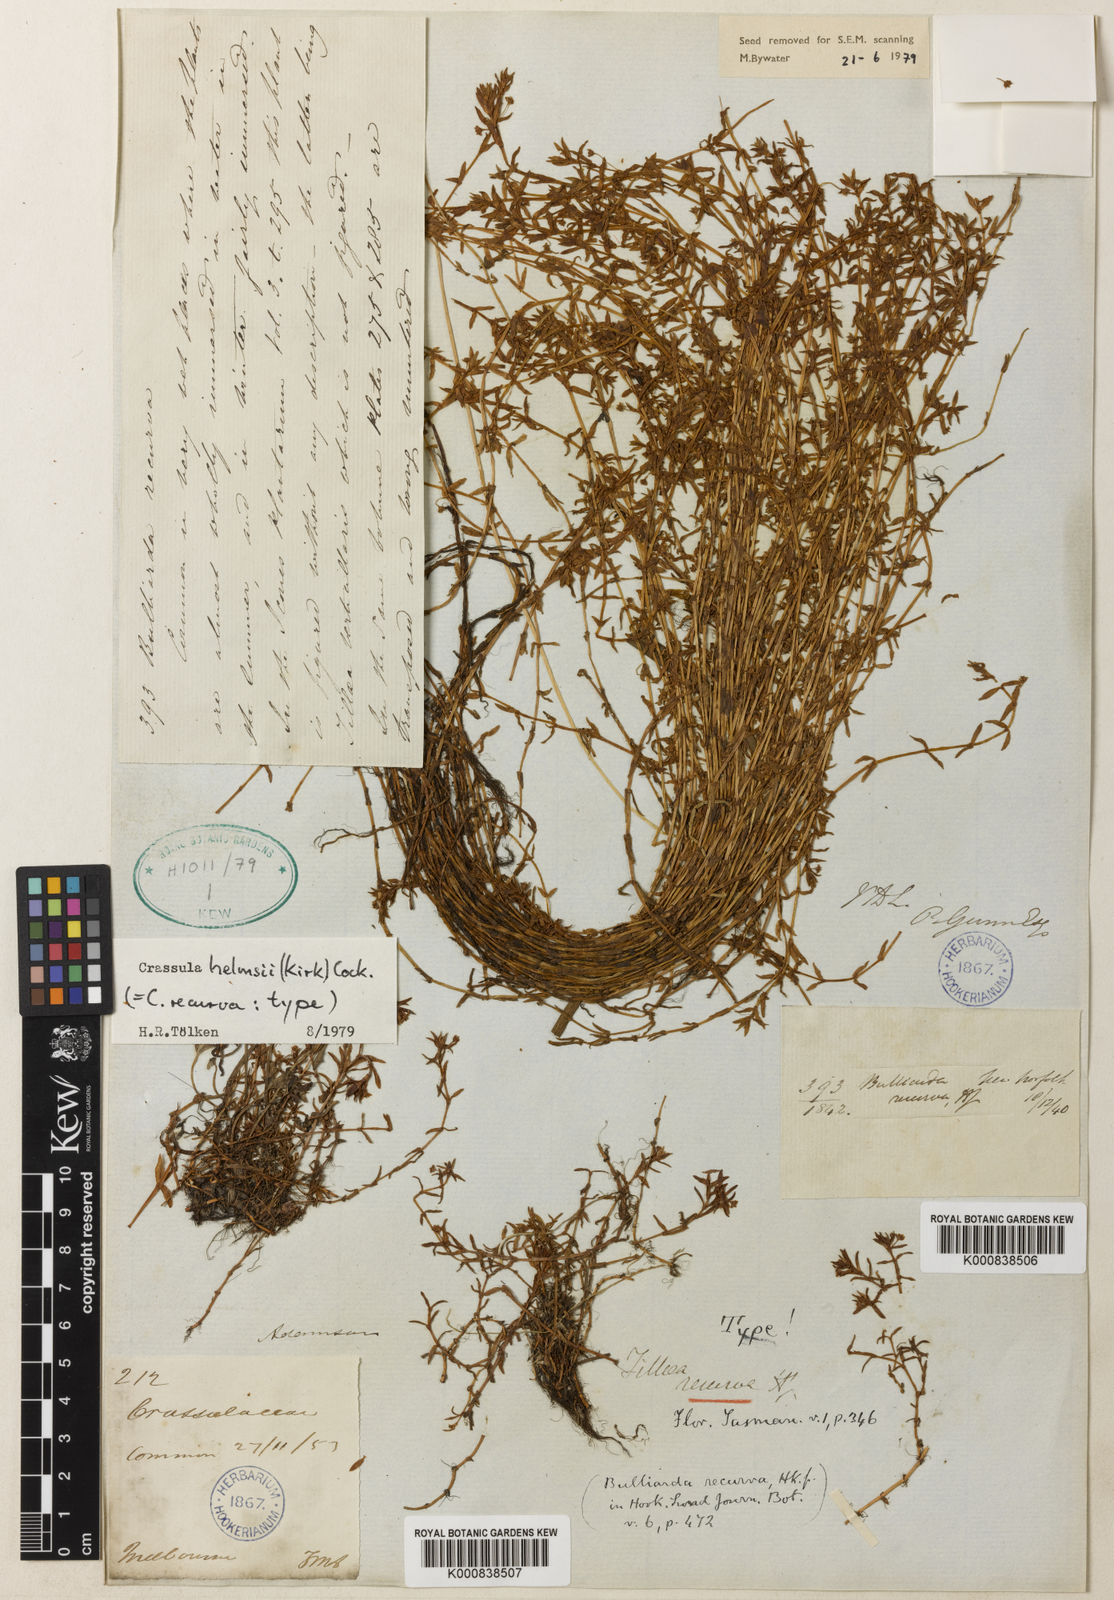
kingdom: Plantae
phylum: Tracheophyta
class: Magnoliopsida
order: Saxifragales
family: Crassulaceae
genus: Crassula
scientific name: Crassula helmsii
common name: New zealand pigmyweed
